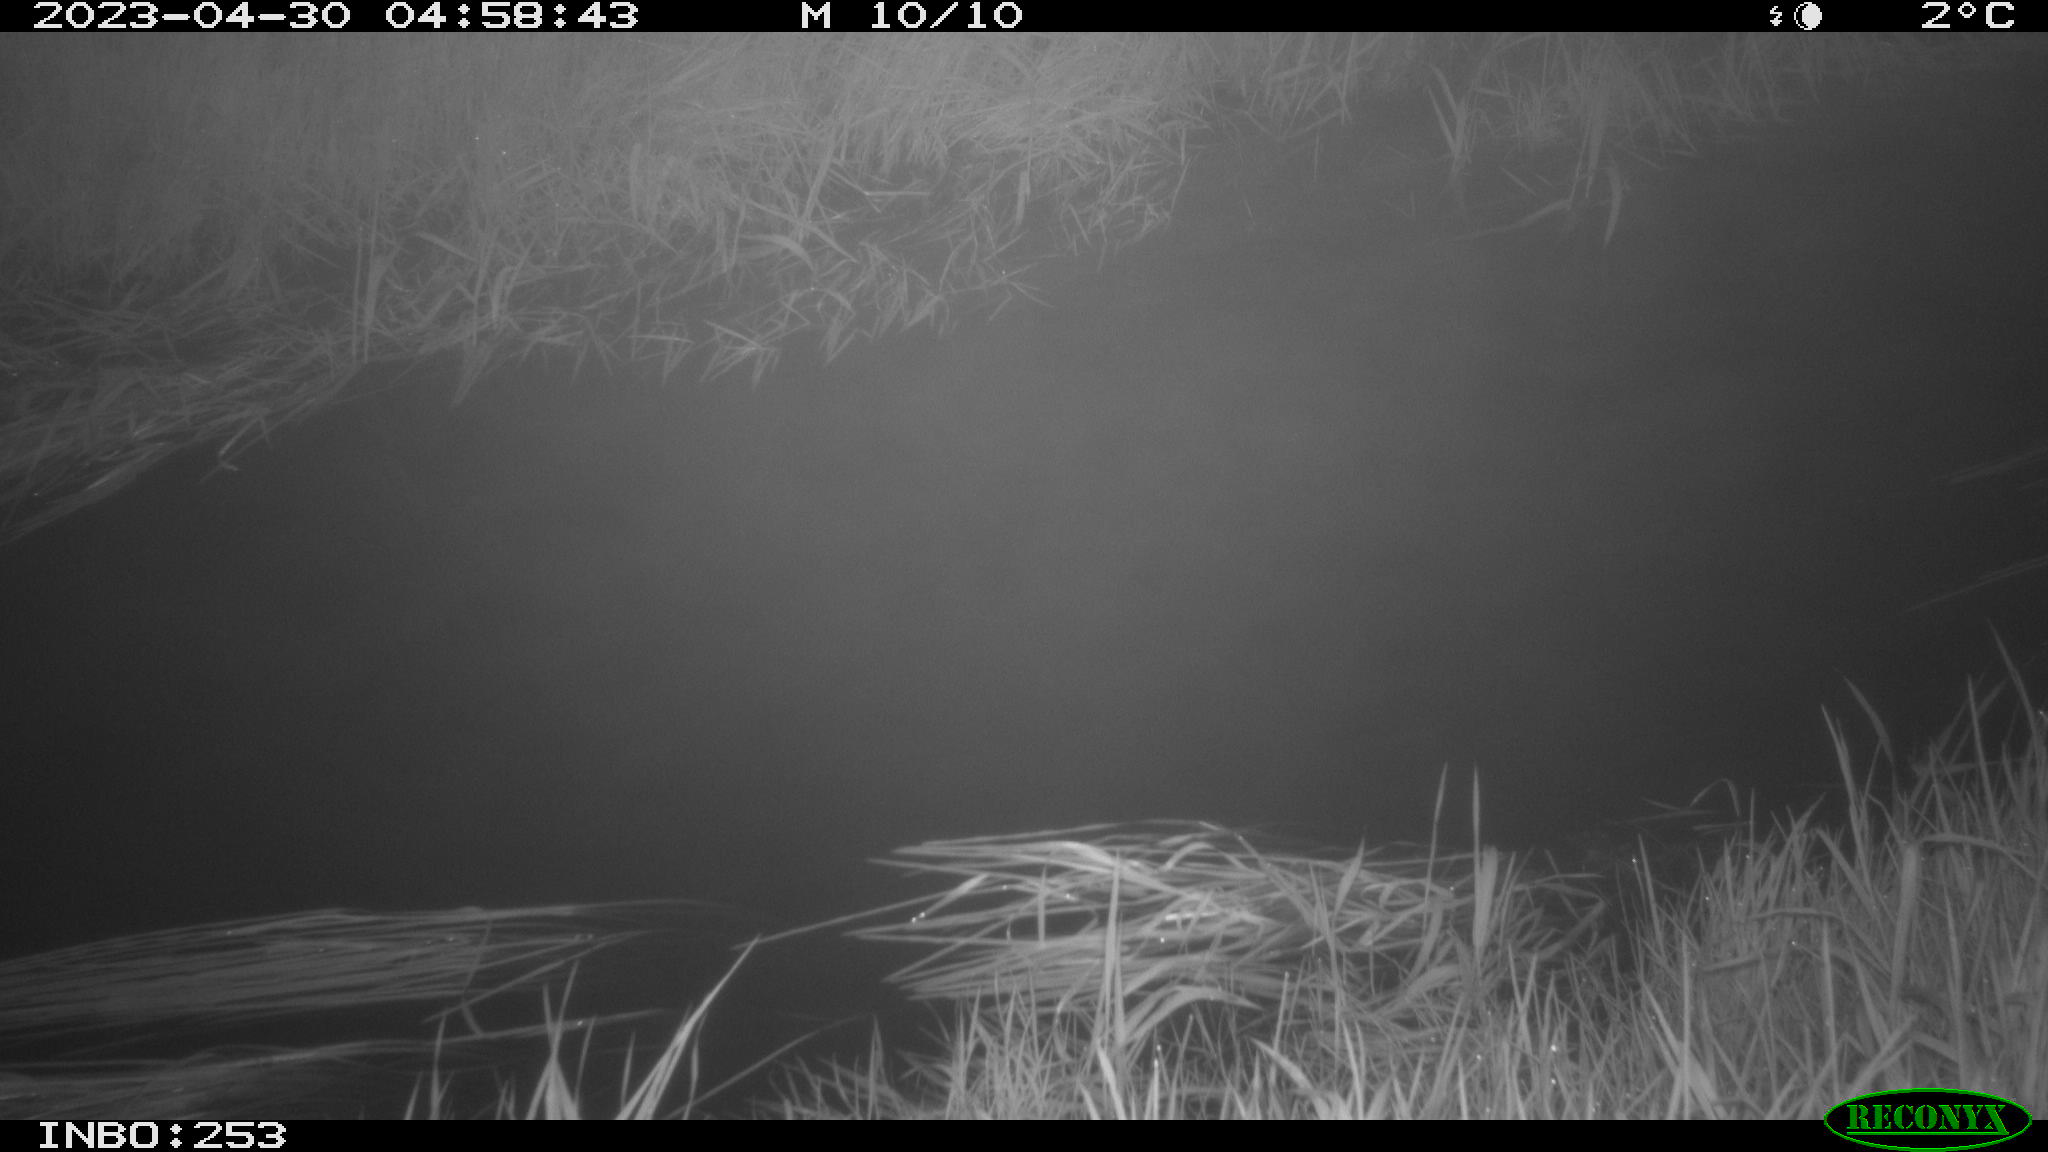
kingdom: Animalia
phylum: Chordata
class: Aves
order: Anseriformes
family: Anatidae
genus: Anas
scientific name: Anas
